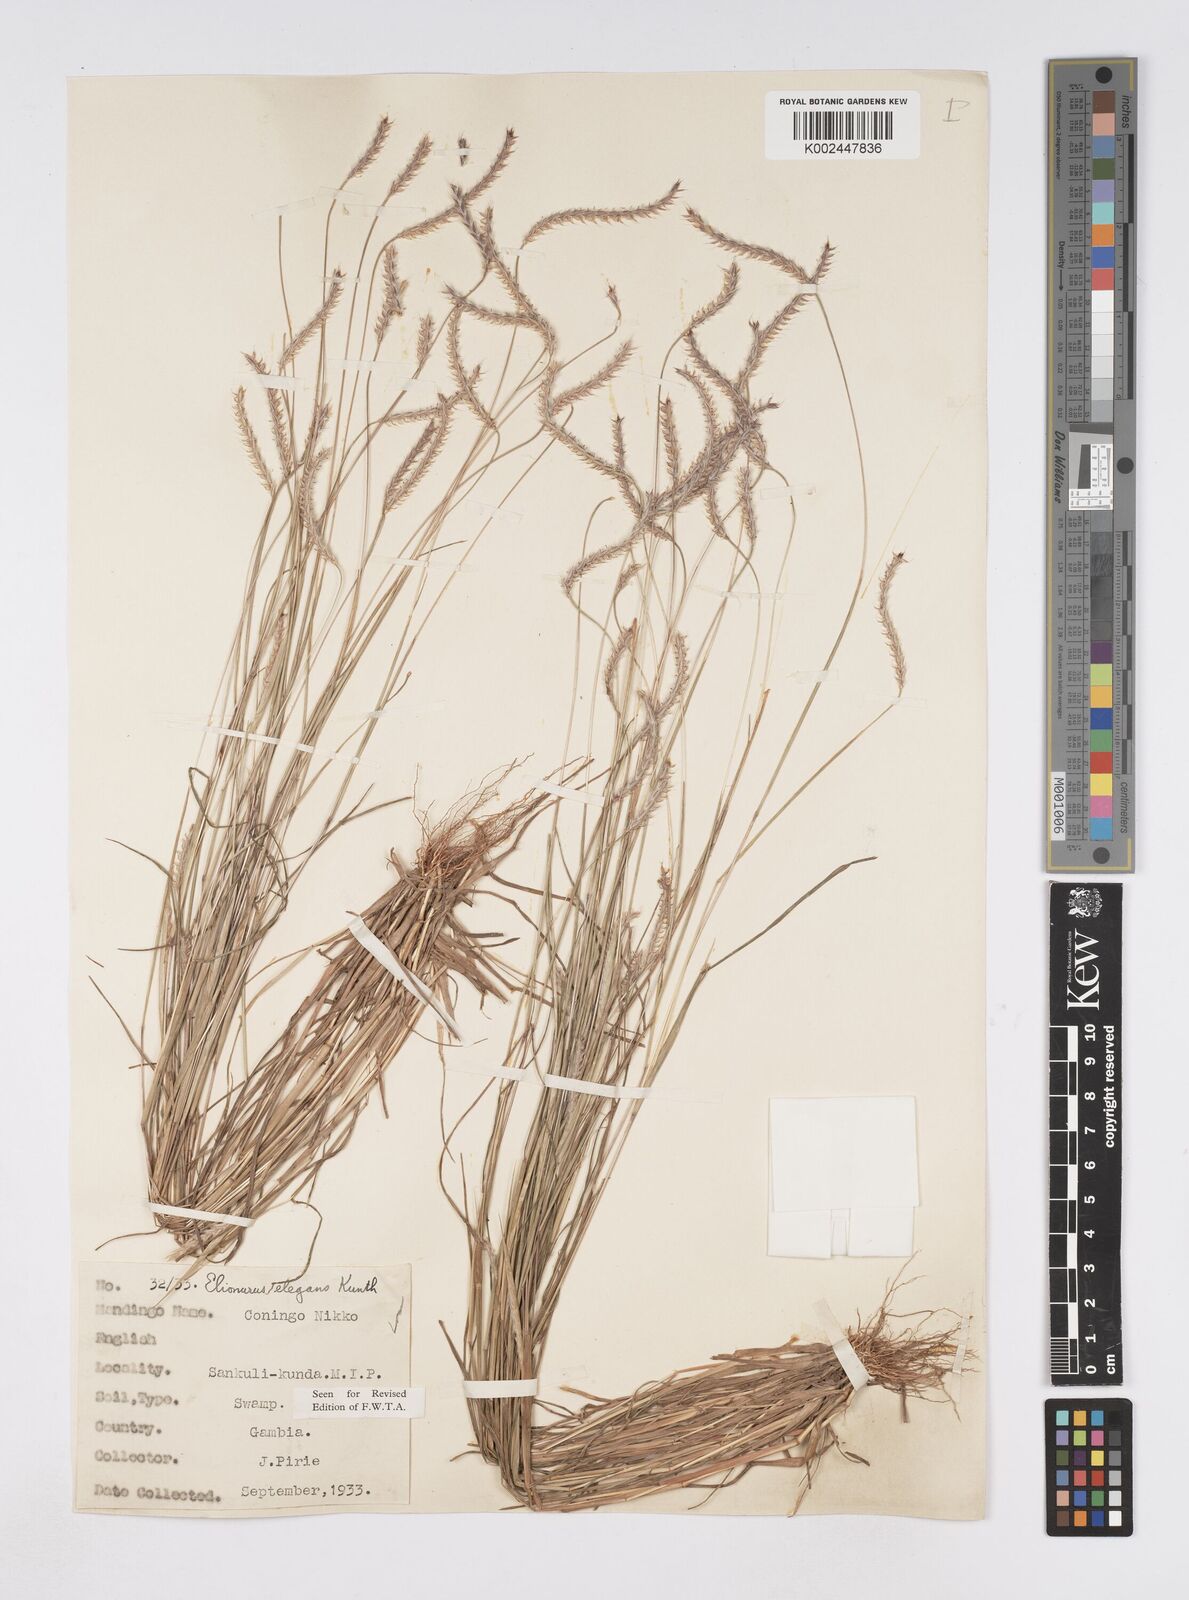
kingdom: Plantae
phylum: Tracheophyta
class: Liliopsida
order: Poales
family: Poaceae
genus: Elionurus
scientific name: Elionurus elegans
